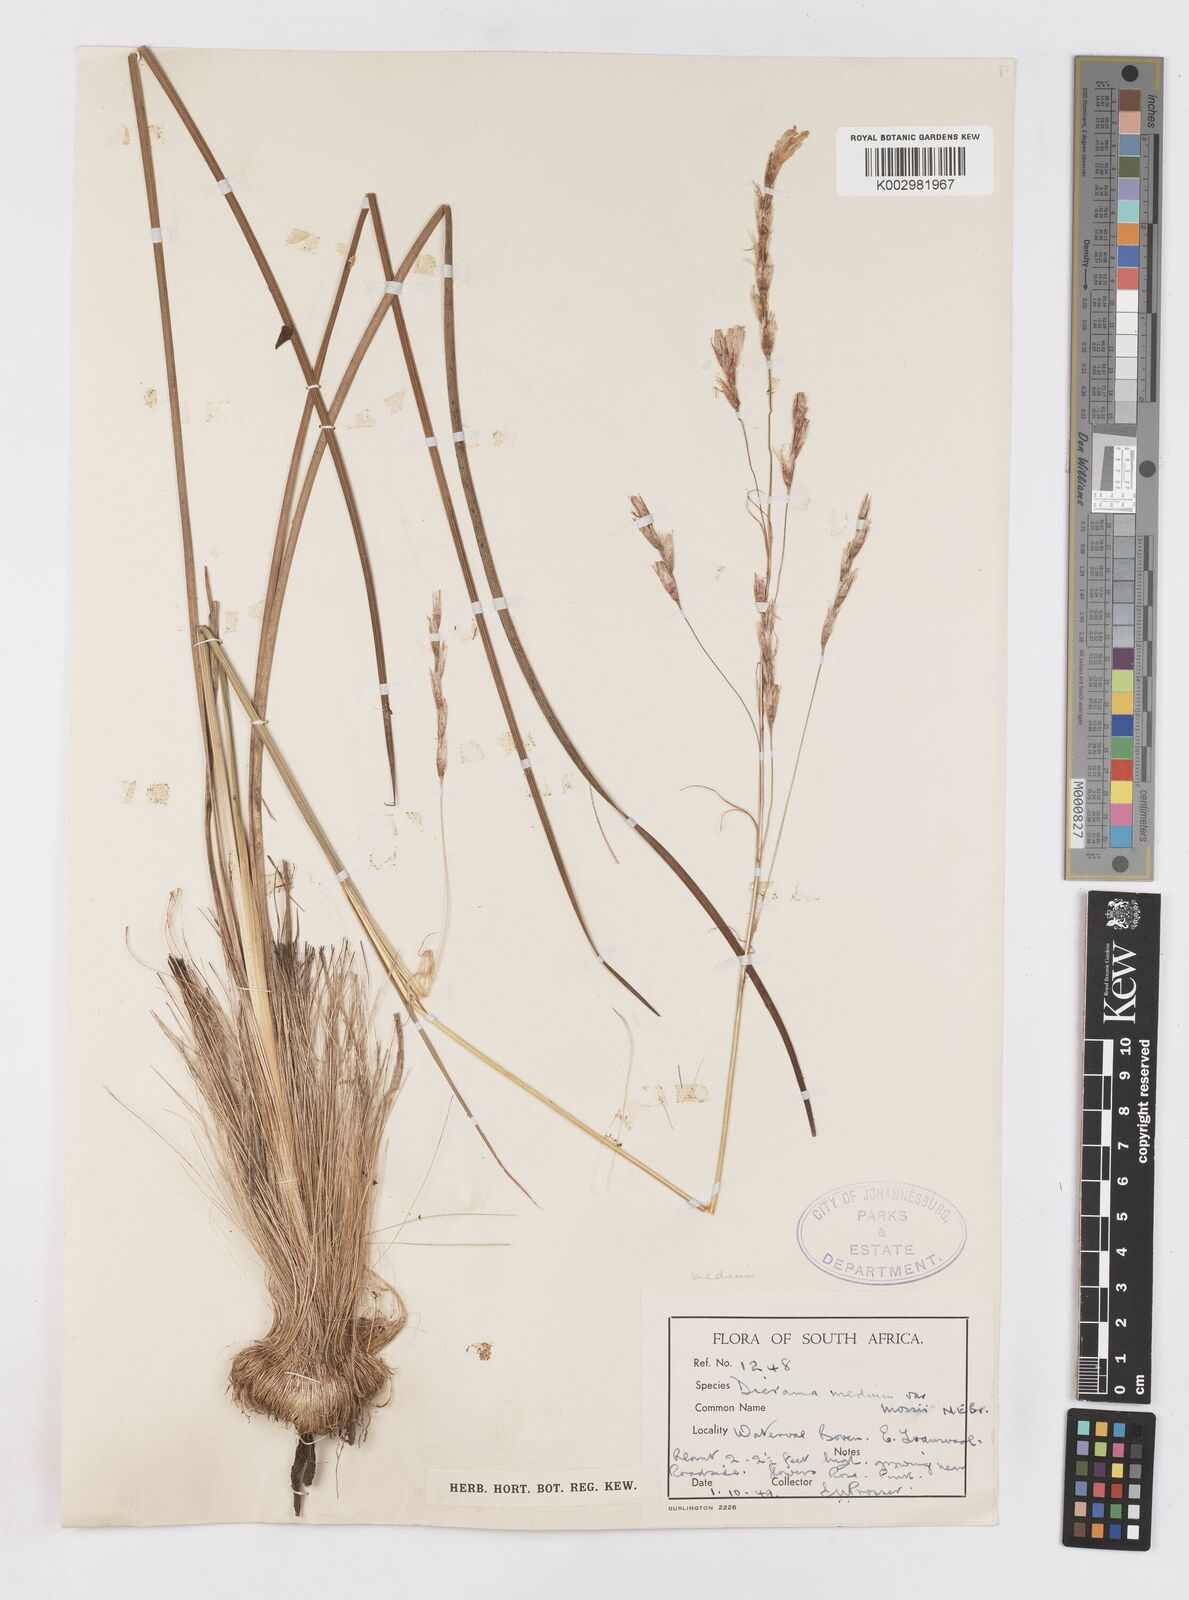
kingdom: Plantae
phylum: Tracheophyta
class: Liliopsida
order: Asparagales
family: Iridaceae
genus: Dierama
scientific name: Dierama medium
